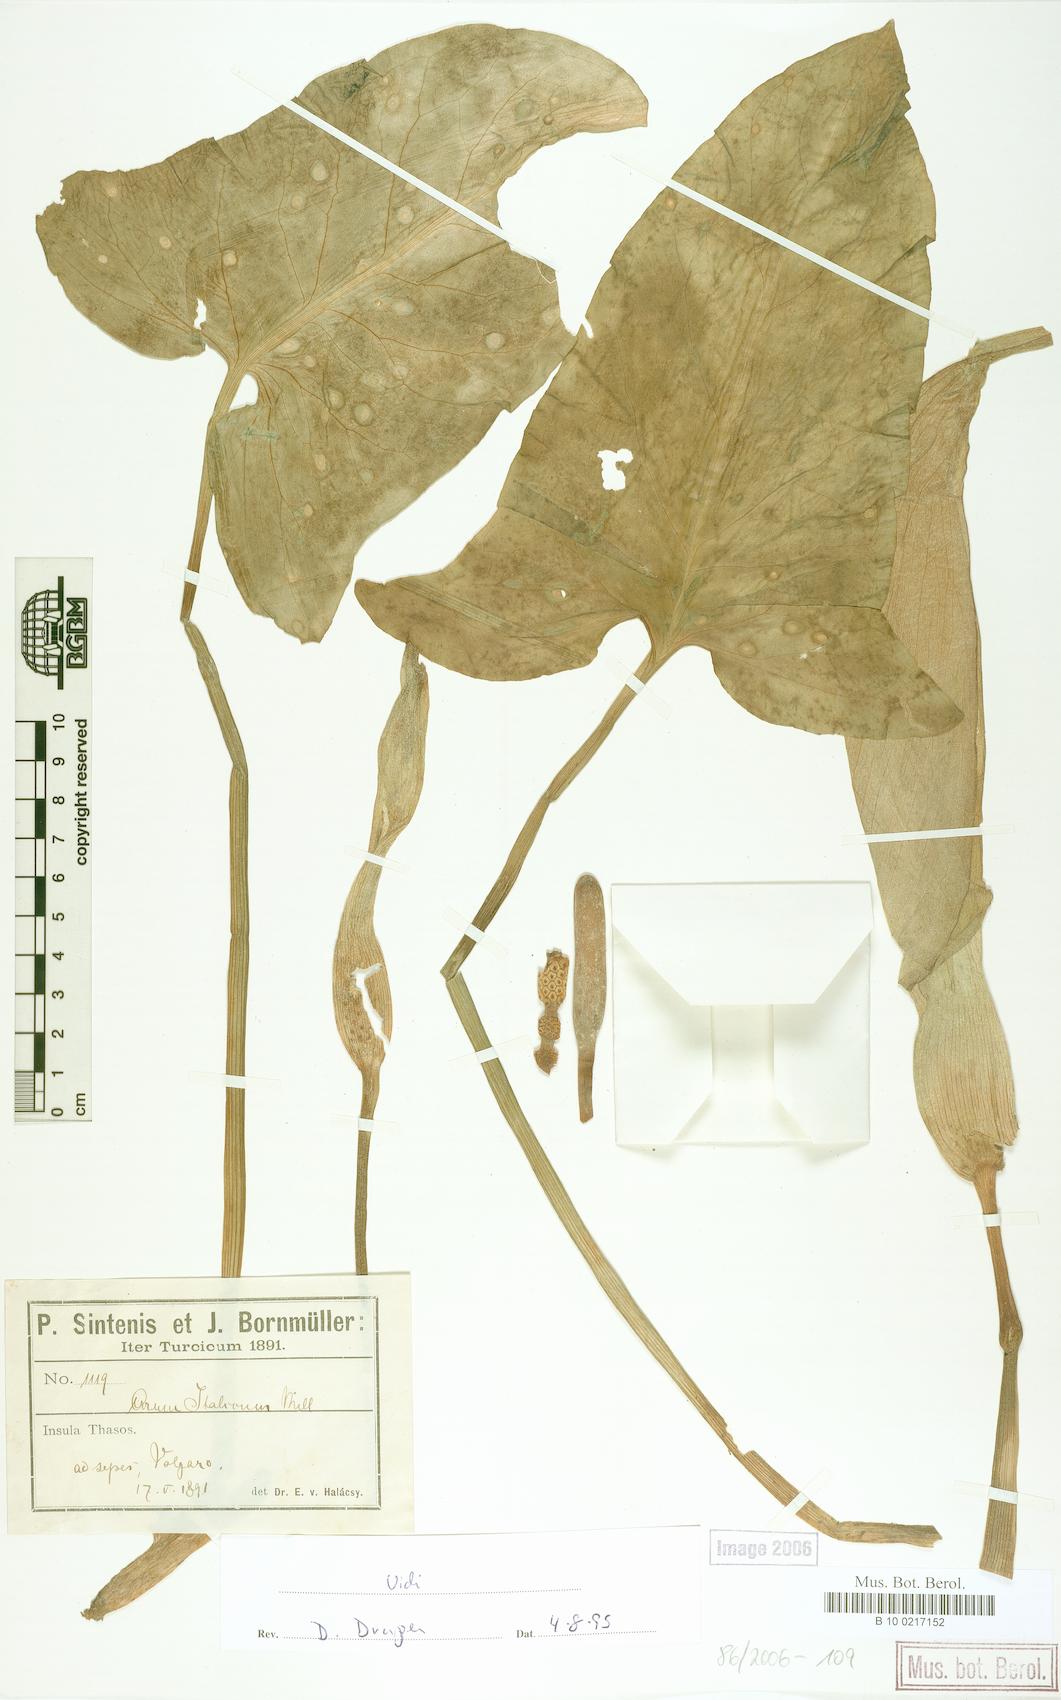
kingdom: Plantae
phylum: Tracheophyta
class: Liliopsida
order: Alismatales
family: Araceae
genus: Arum
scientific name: Arum italicum
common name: Italian lords-and-ladies
